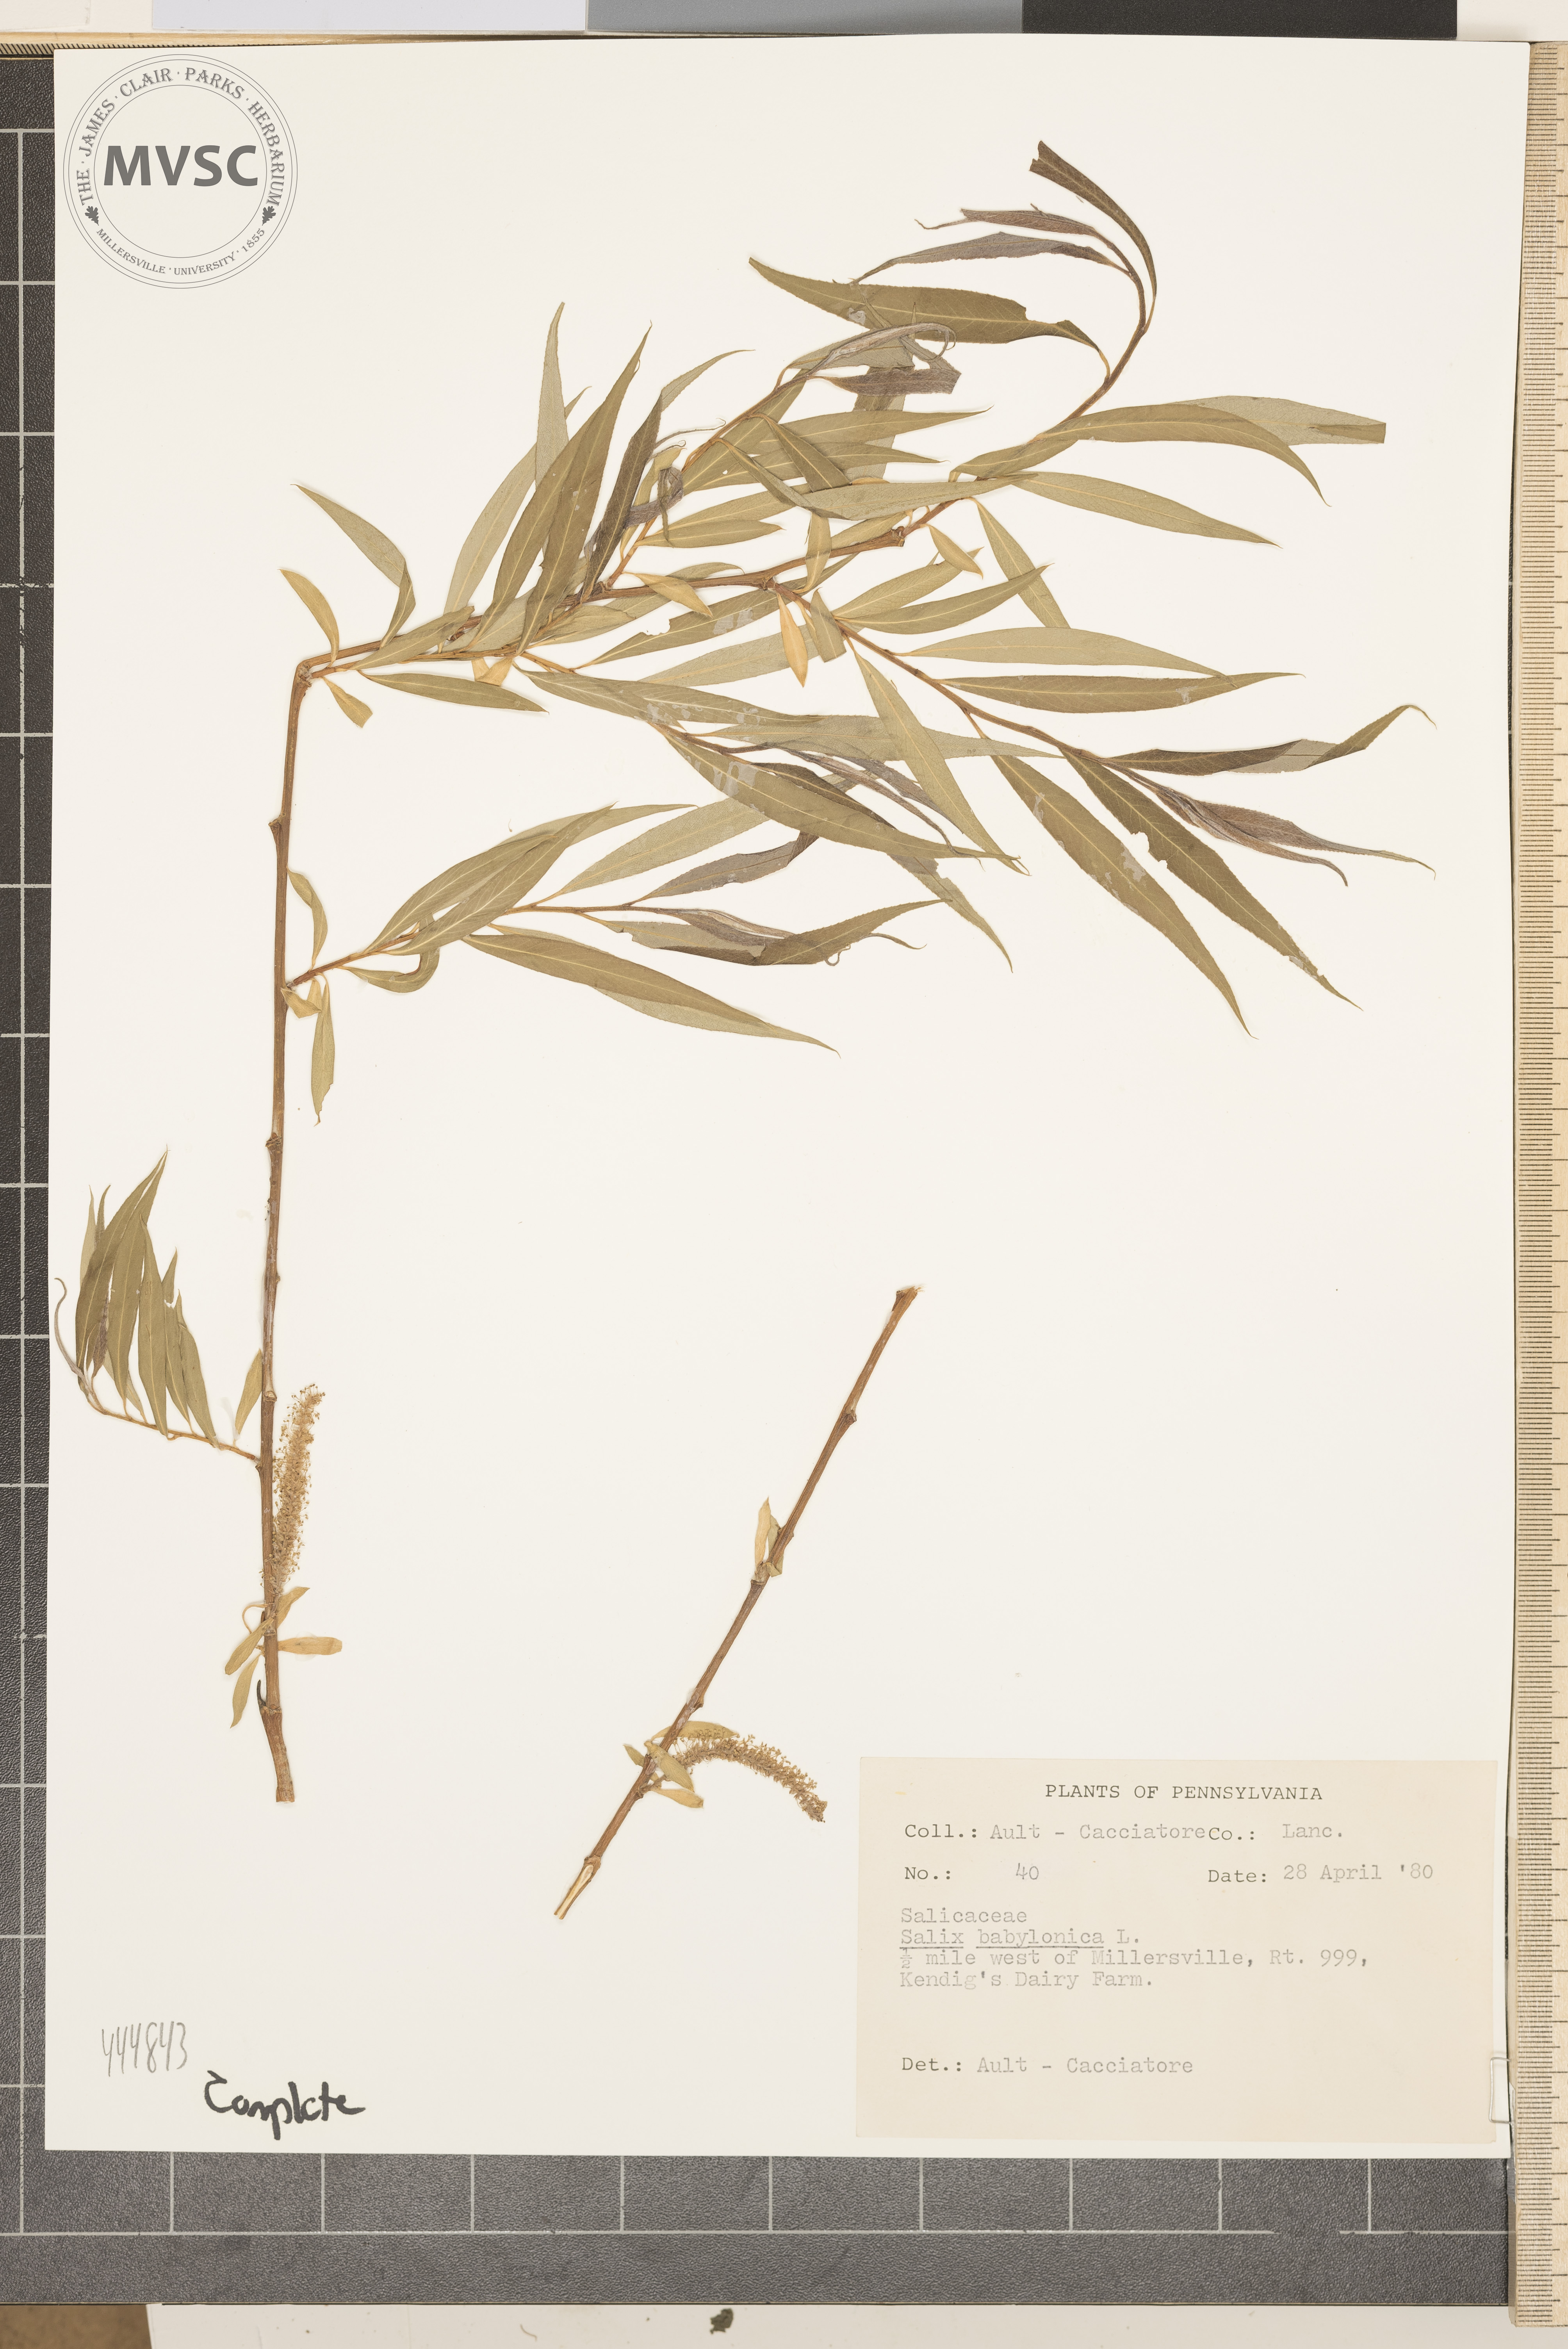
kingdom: Plantae
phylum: Tracheophyta
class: Magnoliopsida
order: Malpighiales
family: Salicaceae
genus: Salix
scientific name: Salix babylonica
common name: Weeping willow
